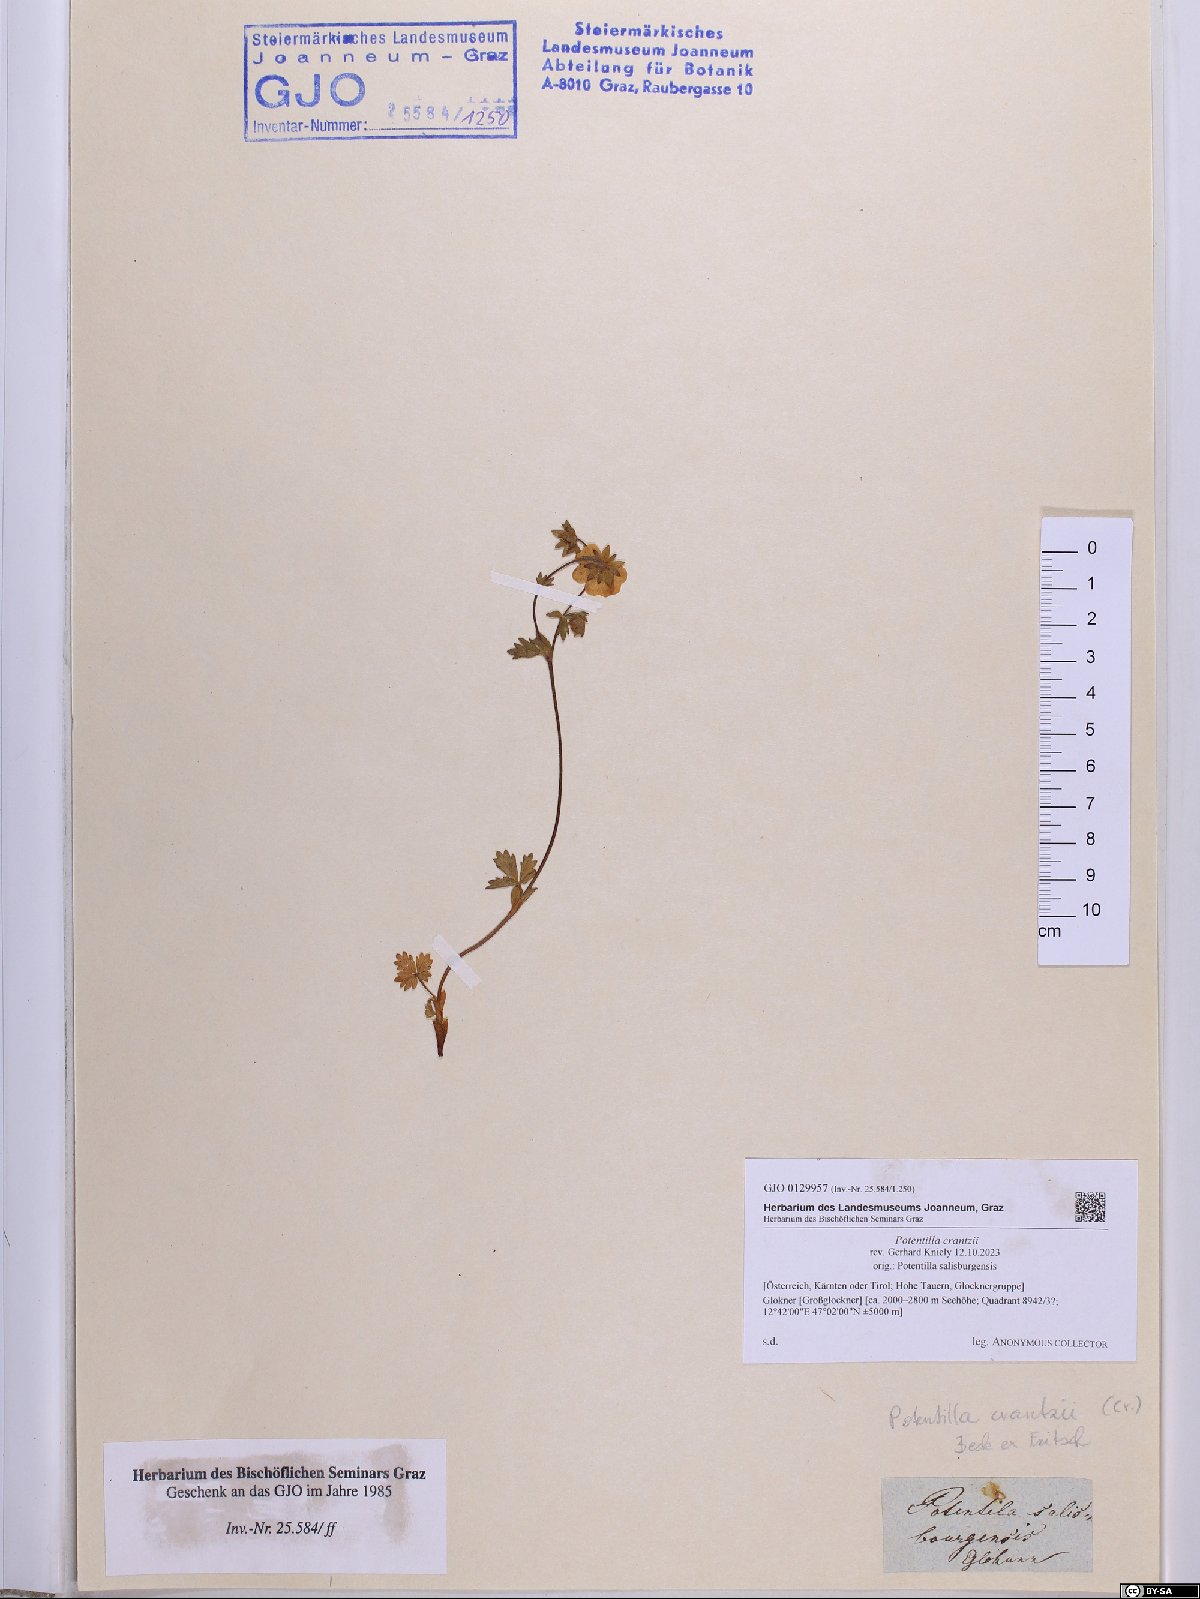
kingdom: Plantae
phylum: Tracheophyta
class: Magnoliopsida
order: Rosales
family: Rosaceae
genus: Potentilla
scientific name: Potentilla crantzii
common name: Alpine cinquefoil
